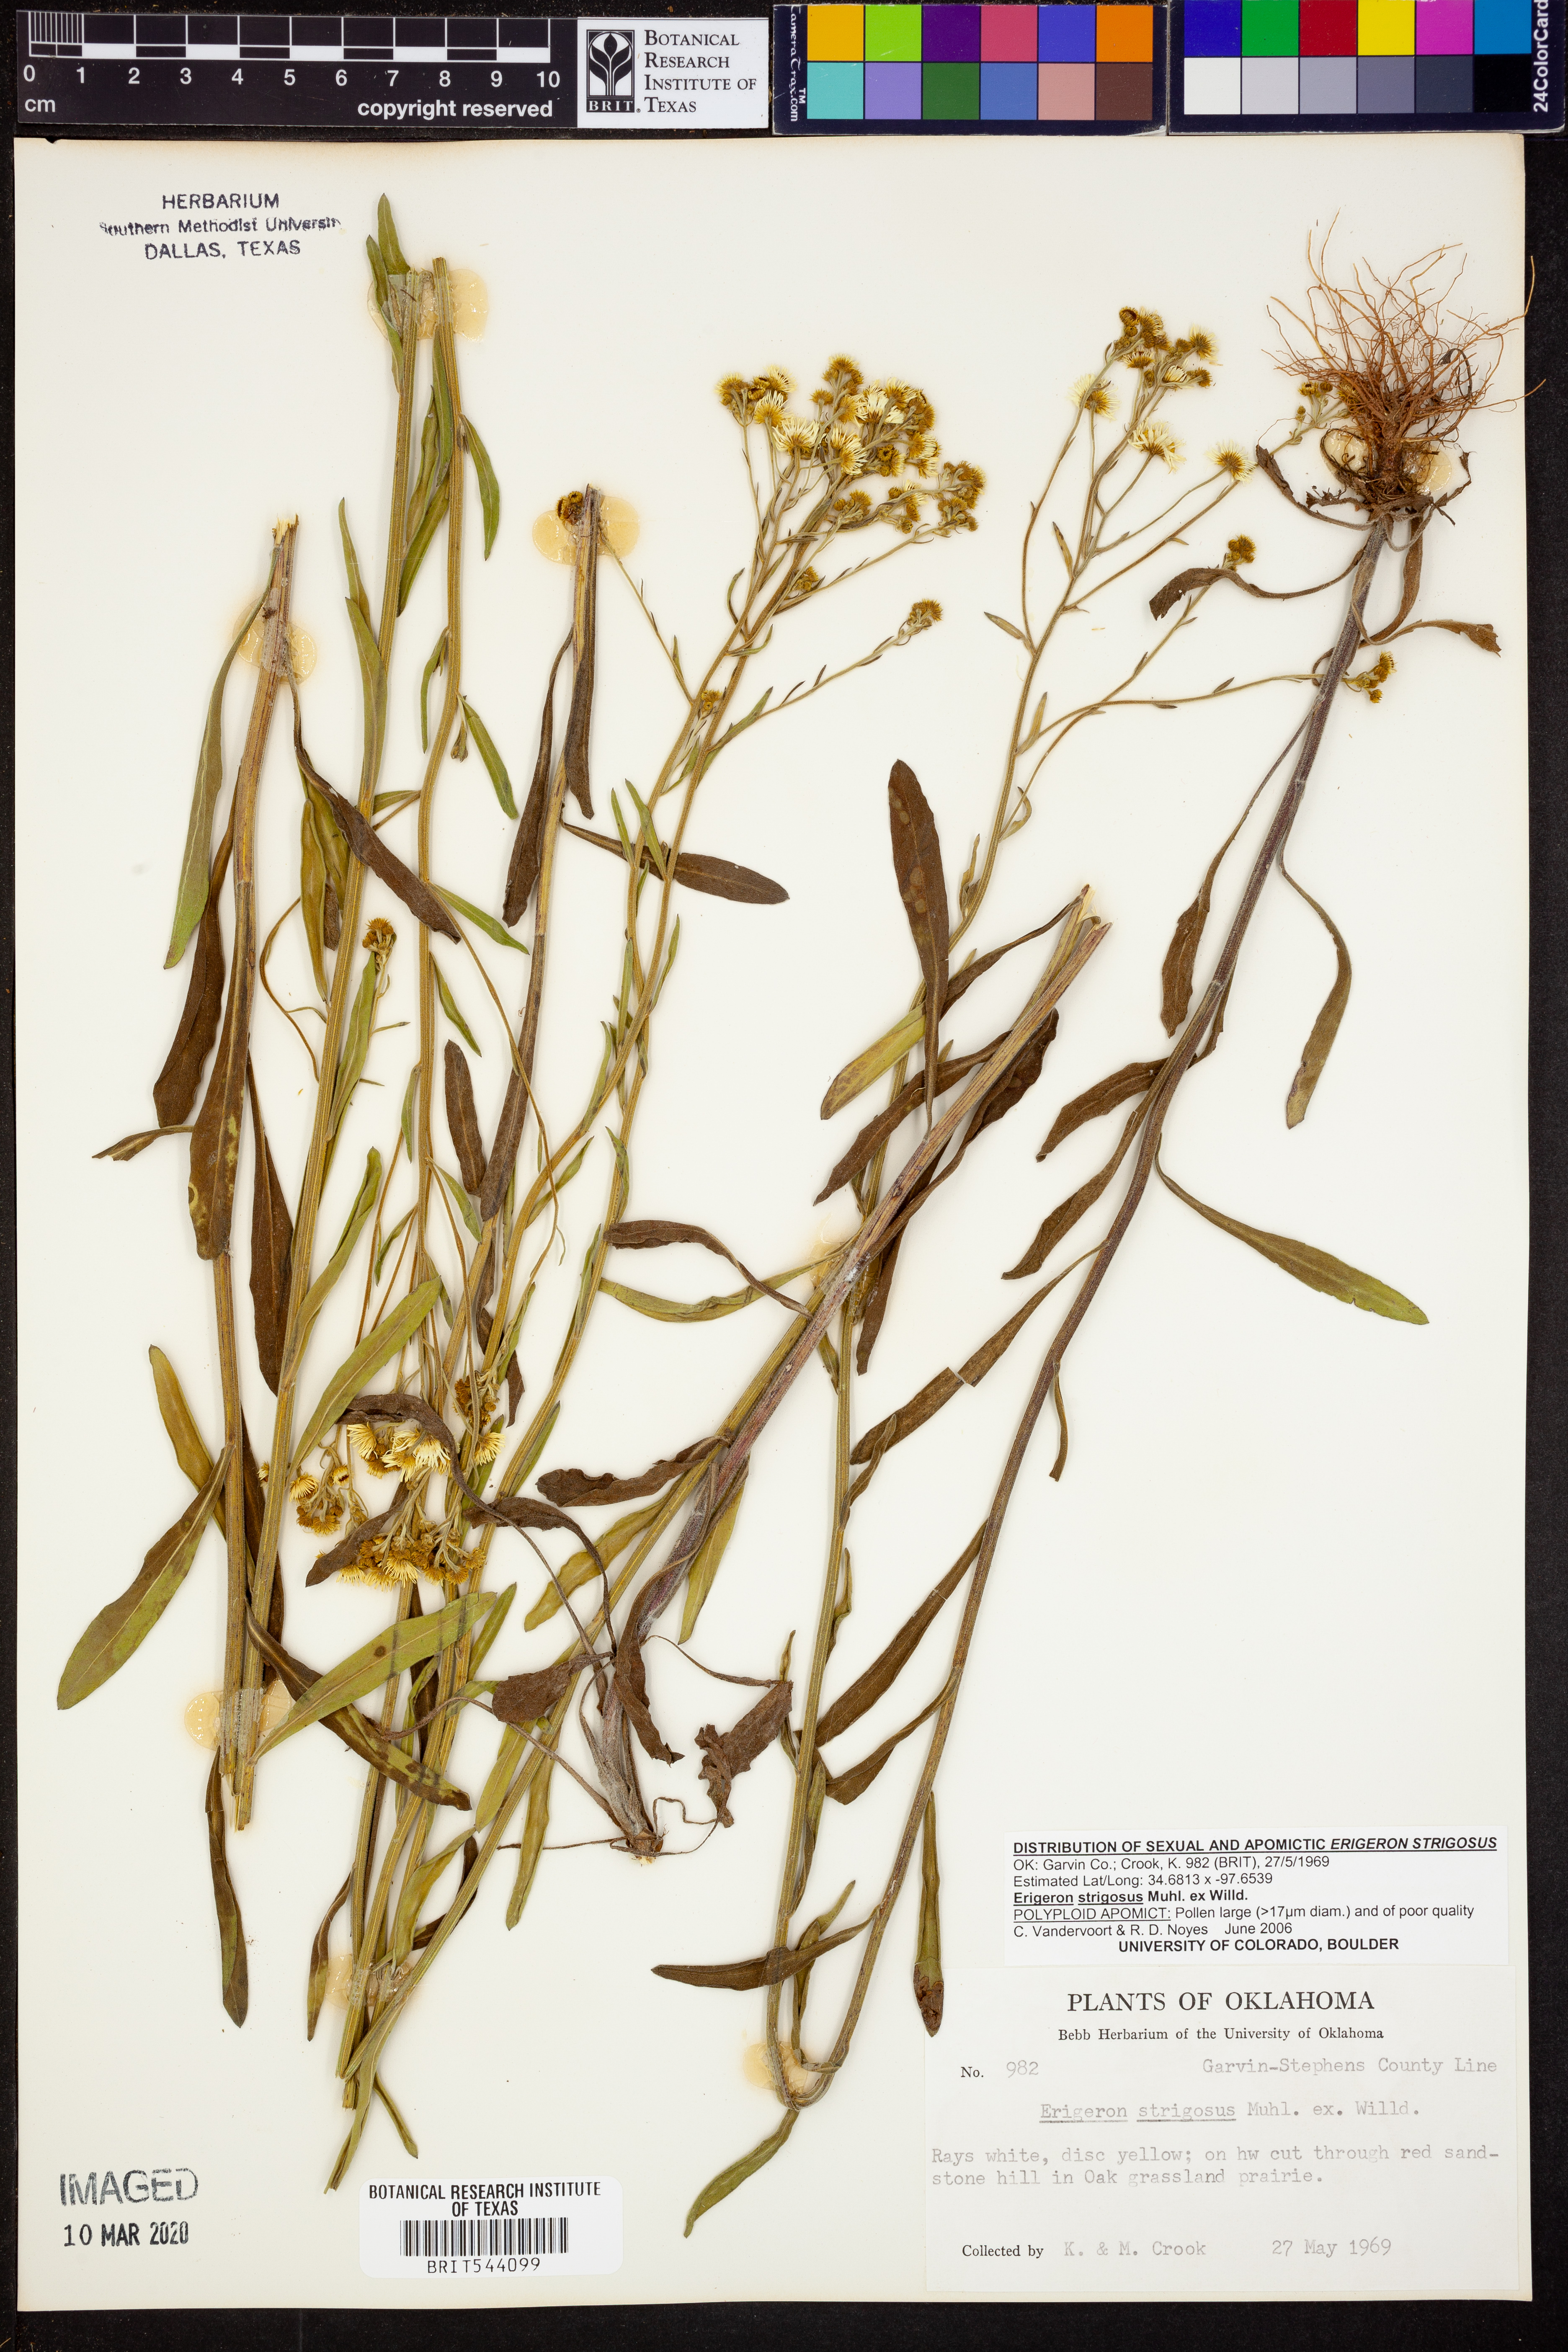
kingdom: Plantae
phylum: Tracheophyta
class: Magnoliopsida
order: Asterales
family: Asteraceae
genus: Erigeron
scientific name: Erigeron strigosus
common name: Common eastern fleabane
